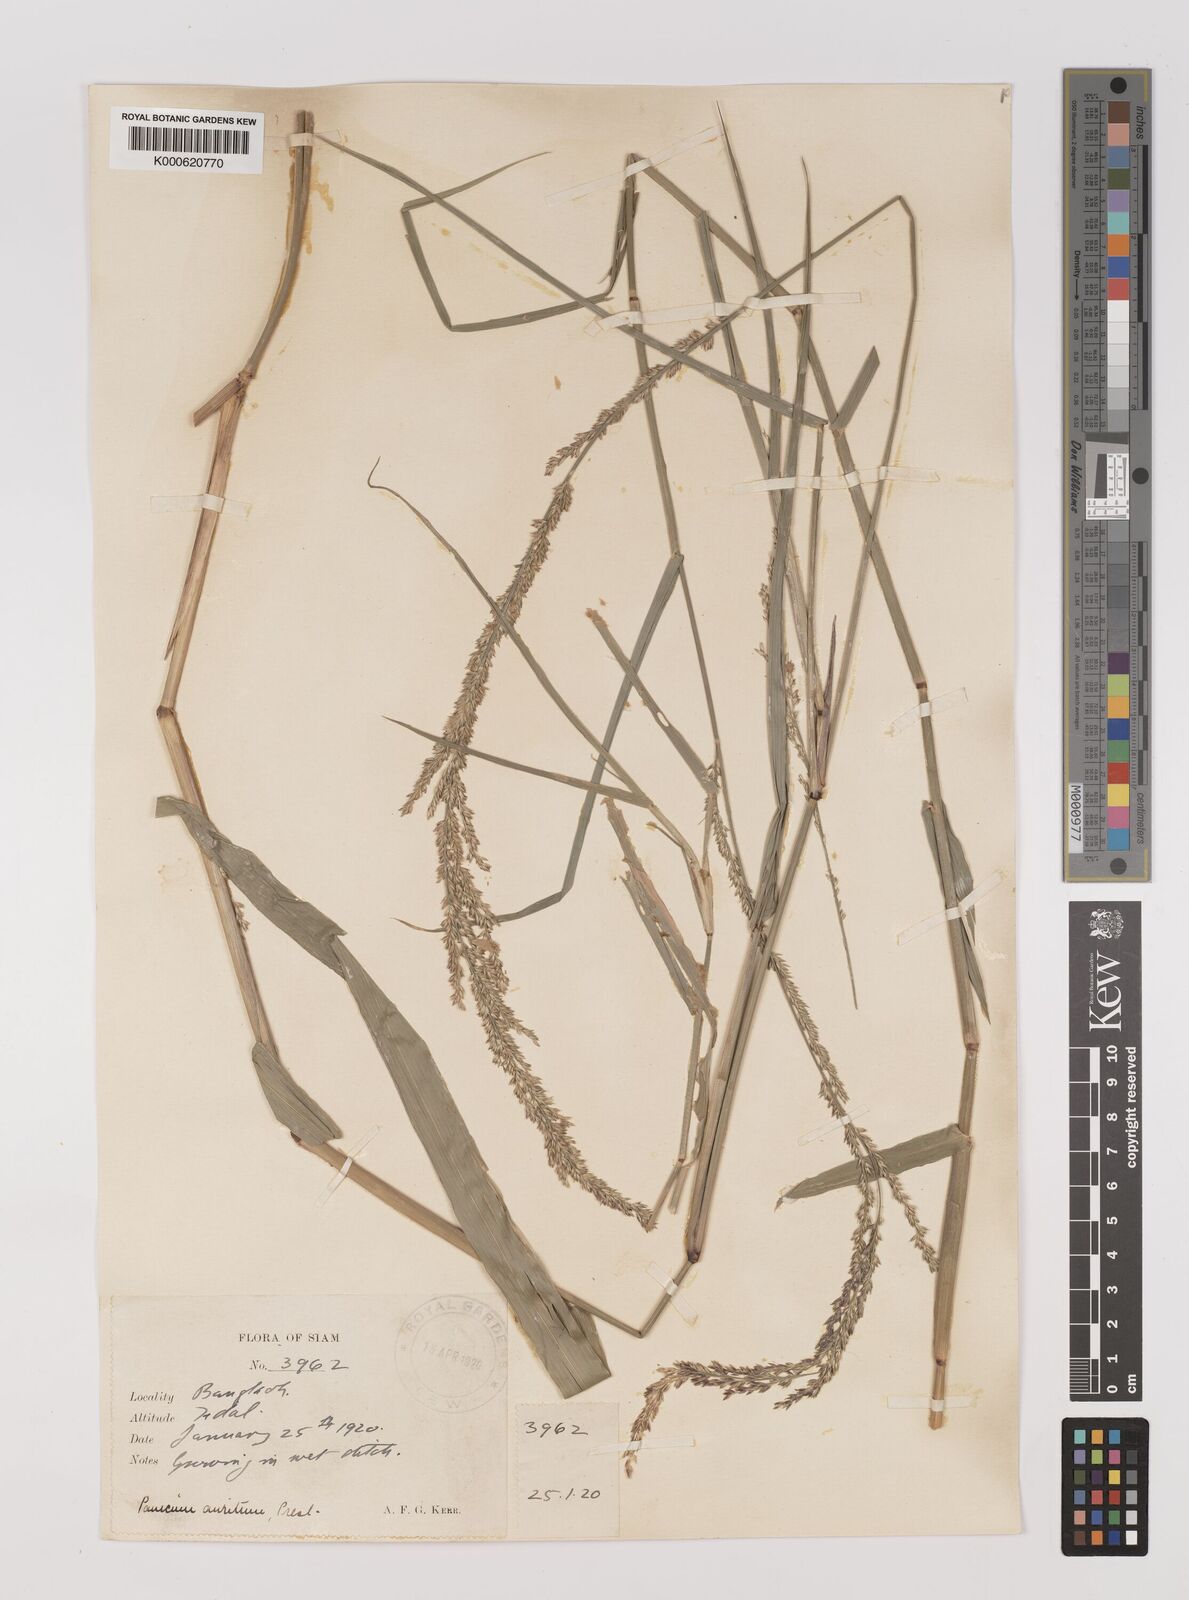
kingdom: Plantae
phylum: Tracheophyta
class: Liliopsida
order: Poales
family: Poaceae
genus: Hymenachne
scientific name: Hymenachne aurita
